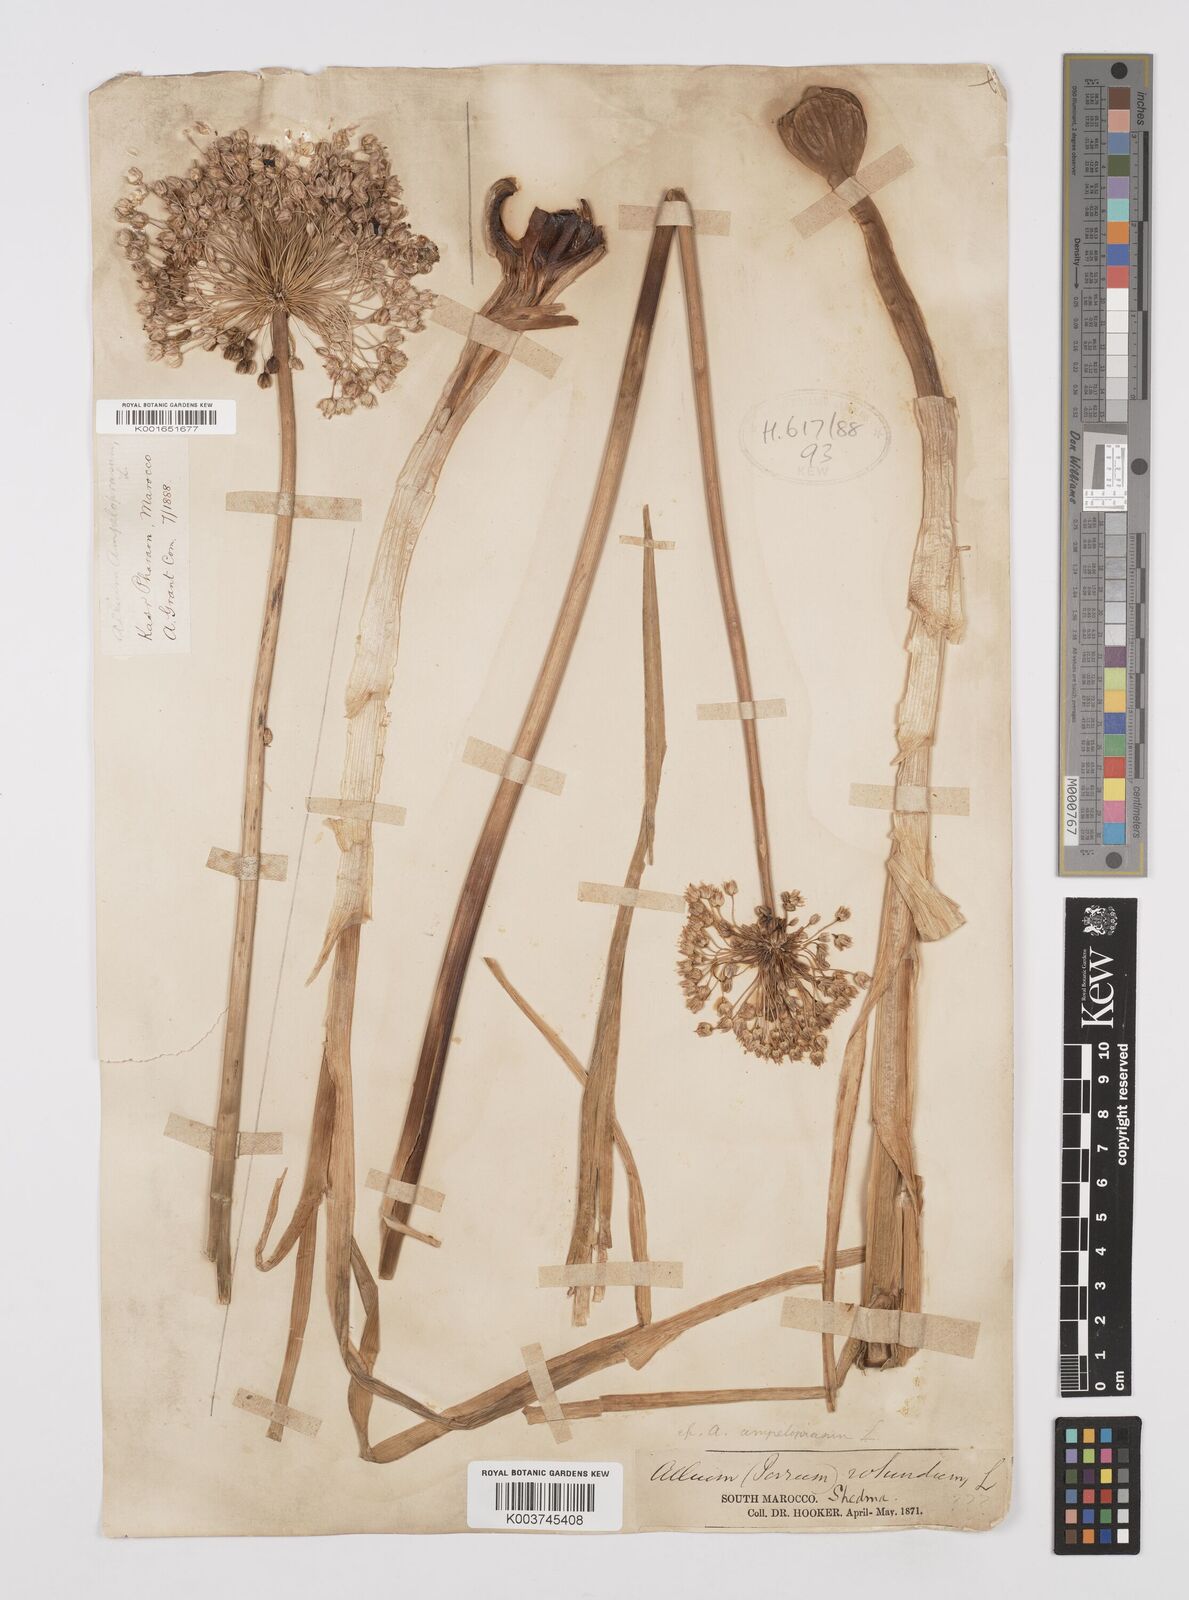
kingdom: Plantae
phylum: Tracheophyta
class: Liliopsida
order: Asparagales
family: Amaryllidaceae
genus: Allium
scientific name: Allium rotundum
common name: Sand leek
